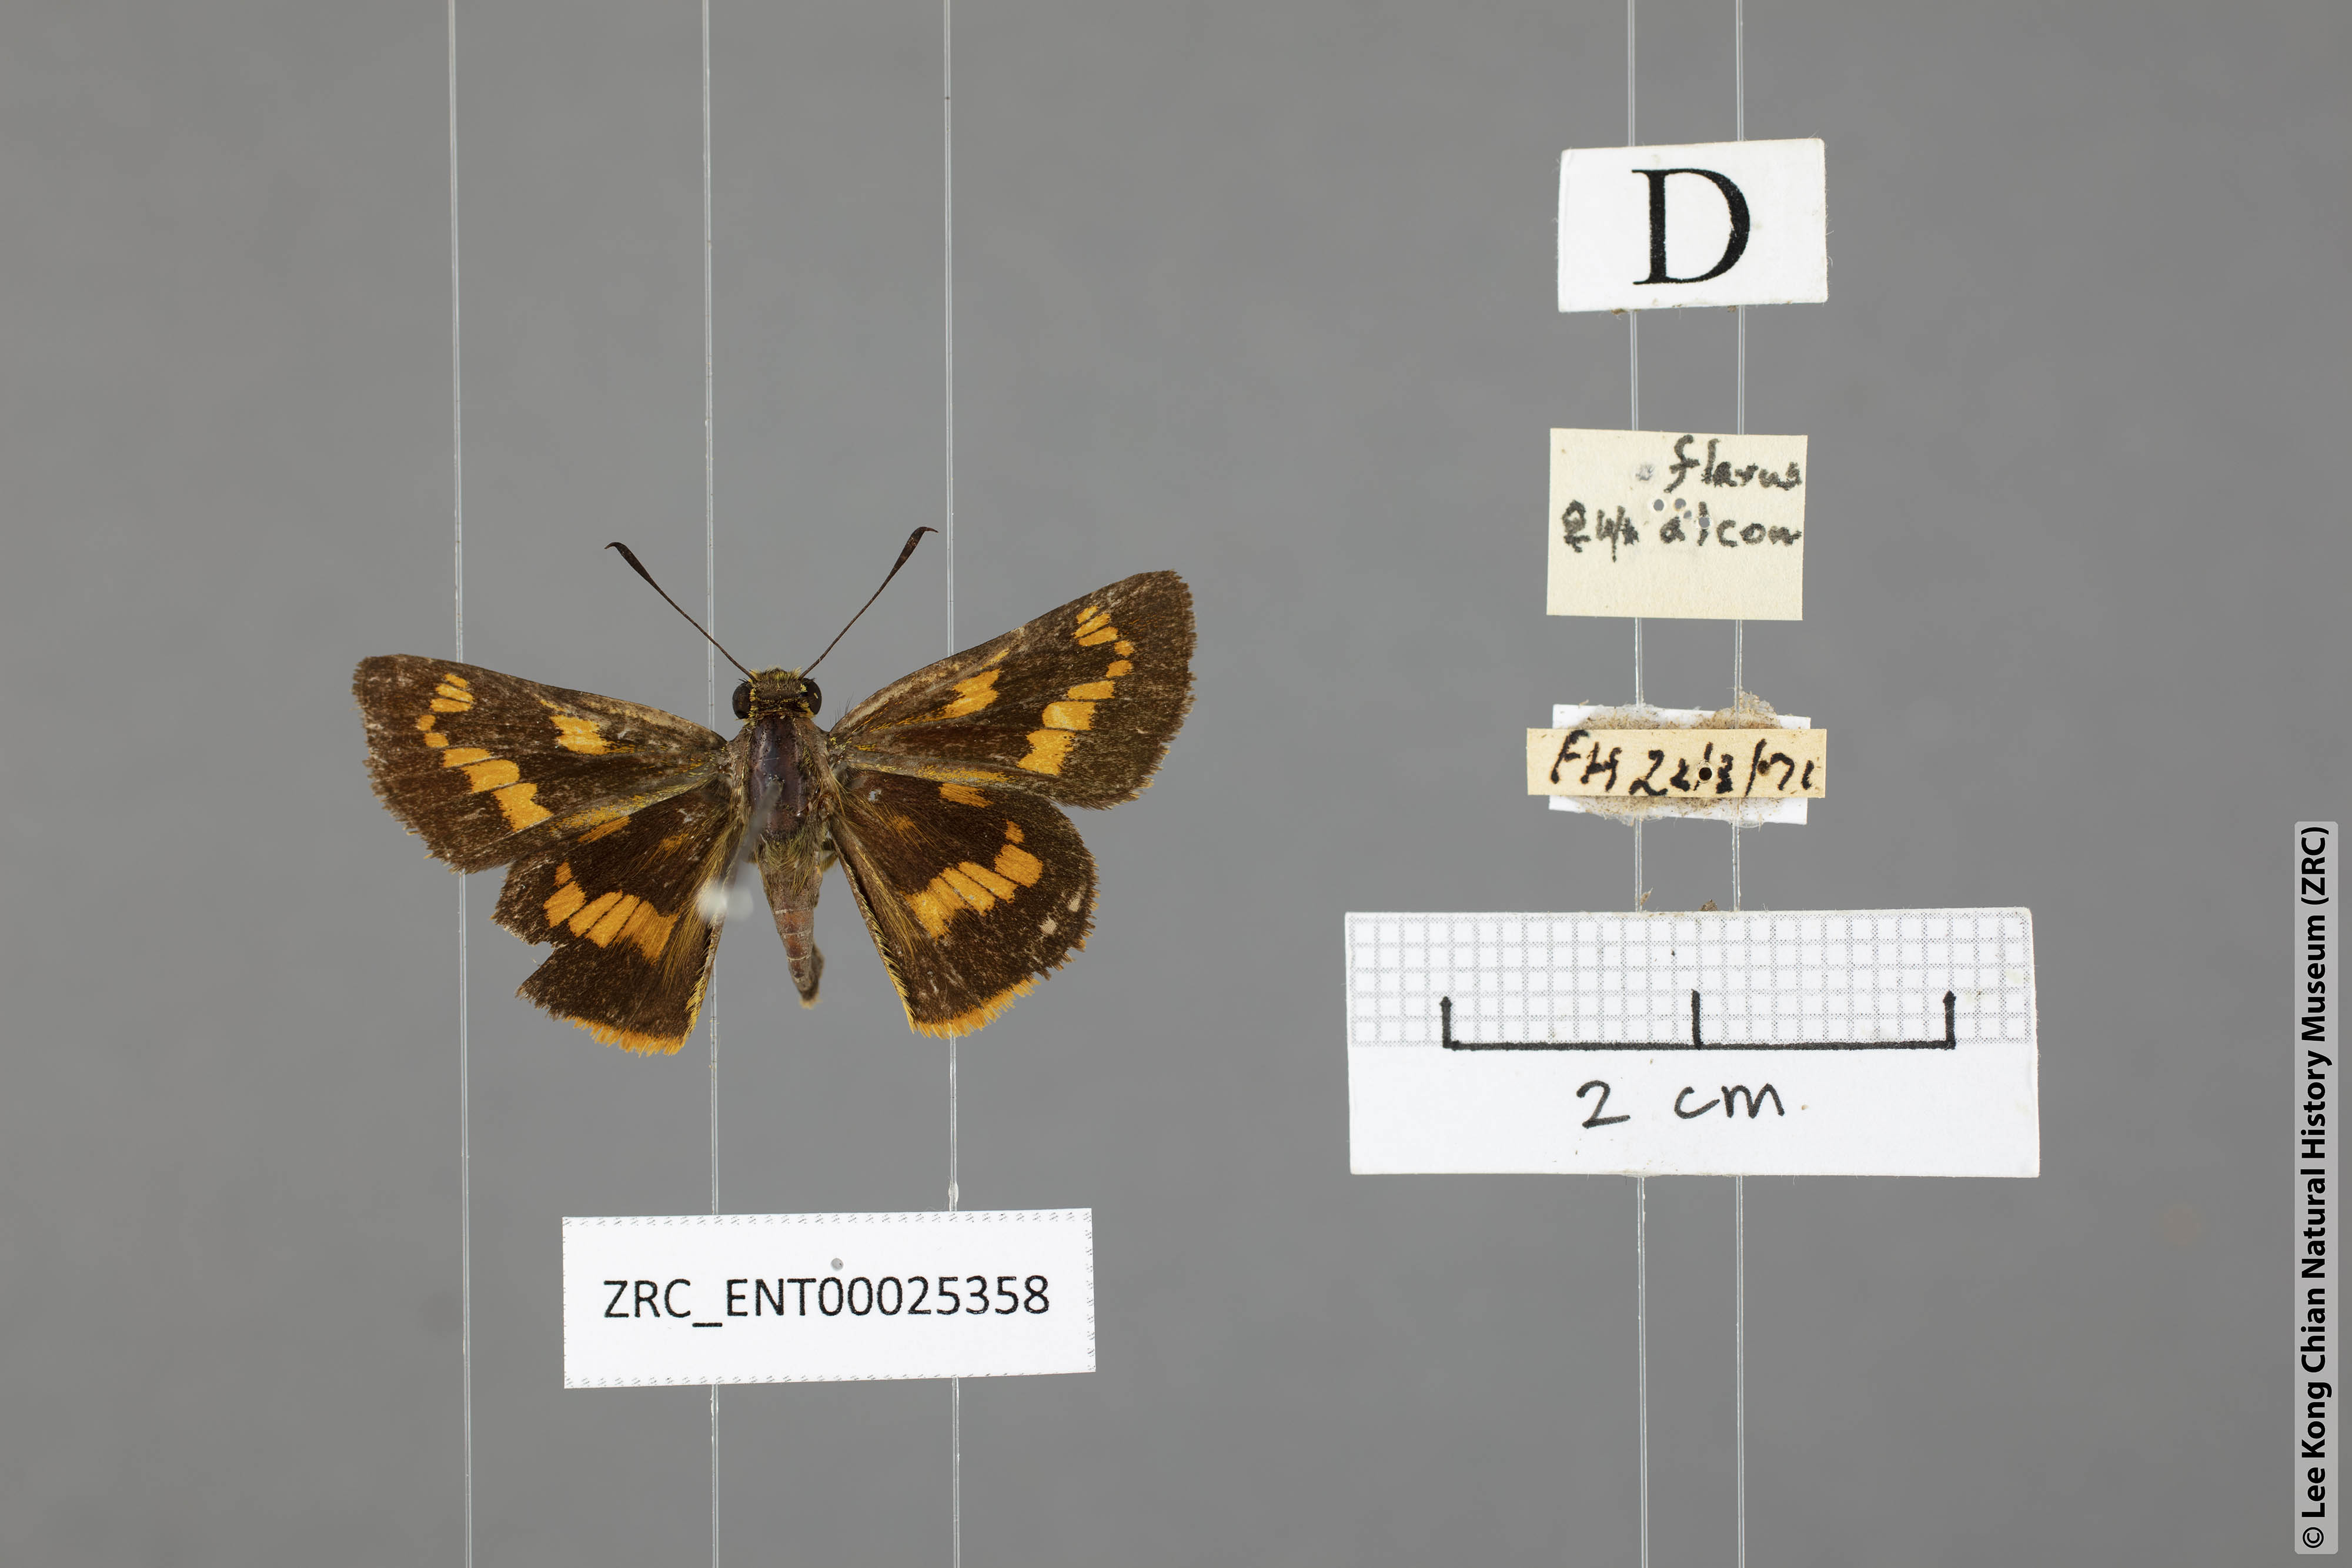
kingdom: Animalia
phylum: Arthropoda
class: Insecta
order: Lepidoptera
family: Hesperiidae
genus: Potanthus
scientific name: Potanthus flava
